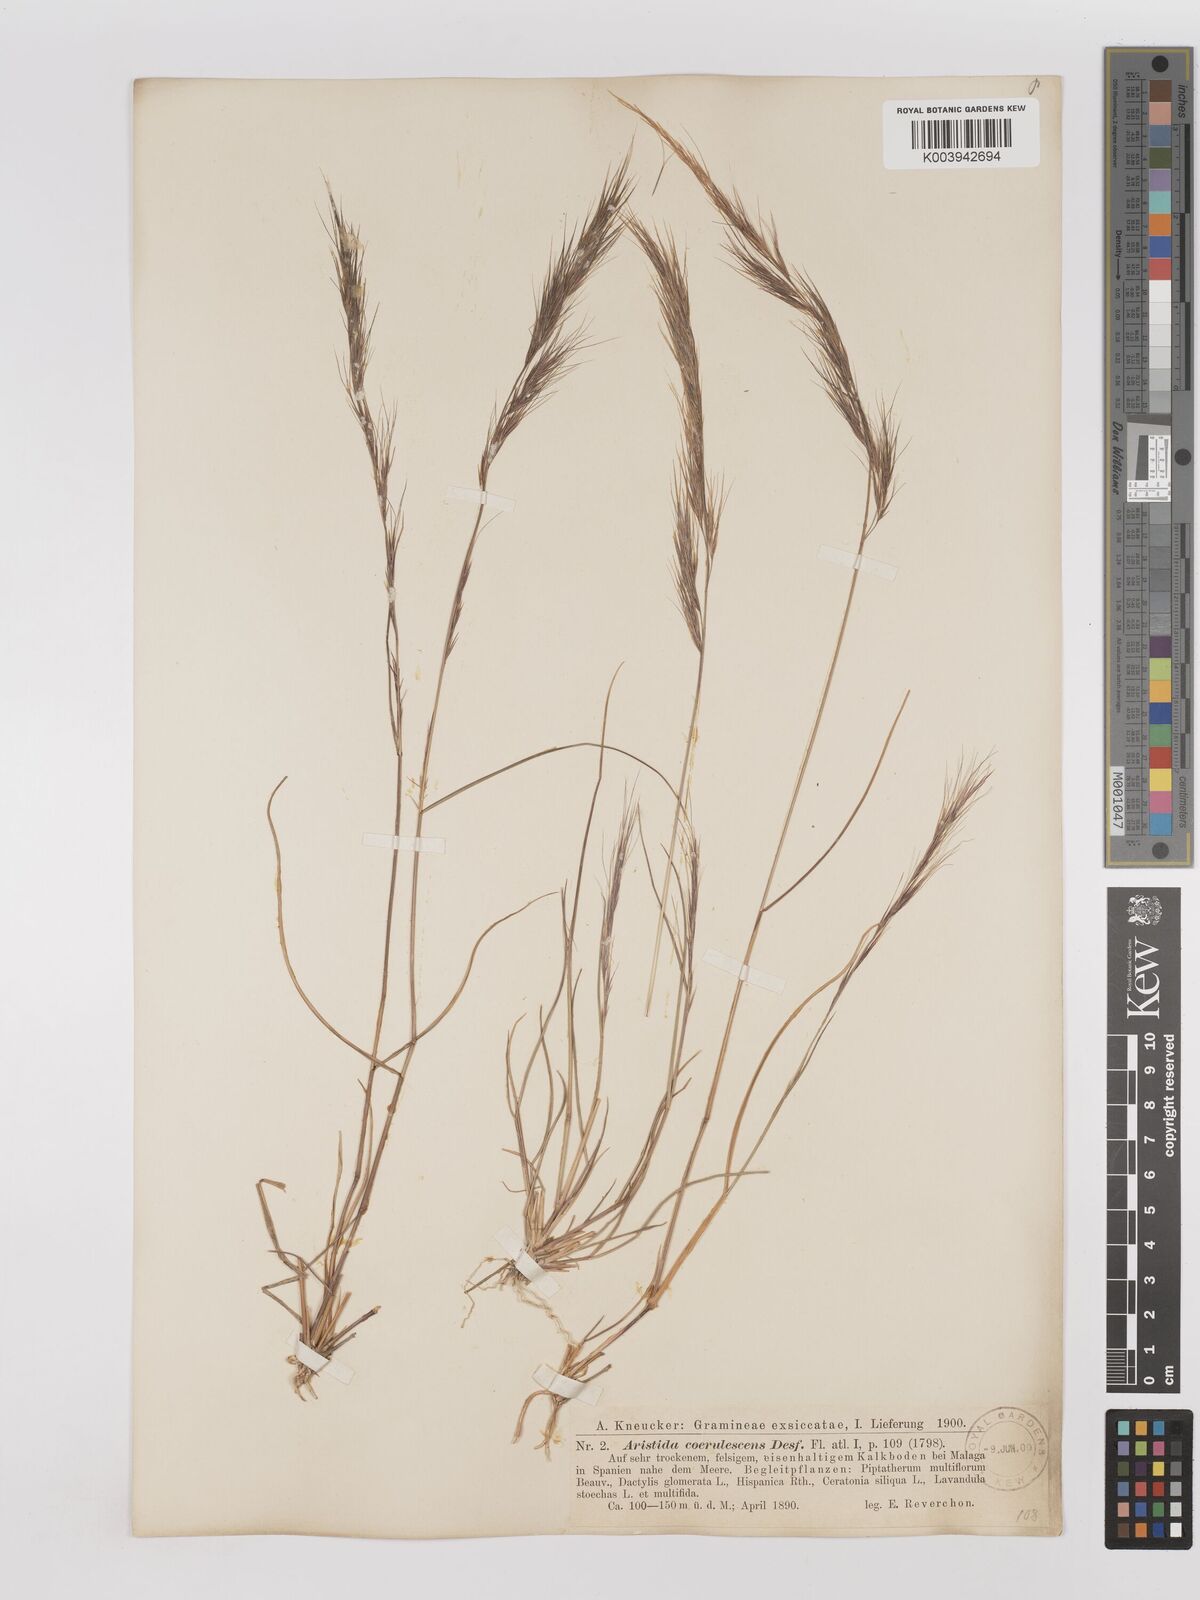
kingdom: Plantae
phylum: Tracheophyta
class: Liliopsida
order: Poales
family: Poaceae
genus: Aristida
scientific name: Aristida adscensionis
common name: Sixweeks threeawn
